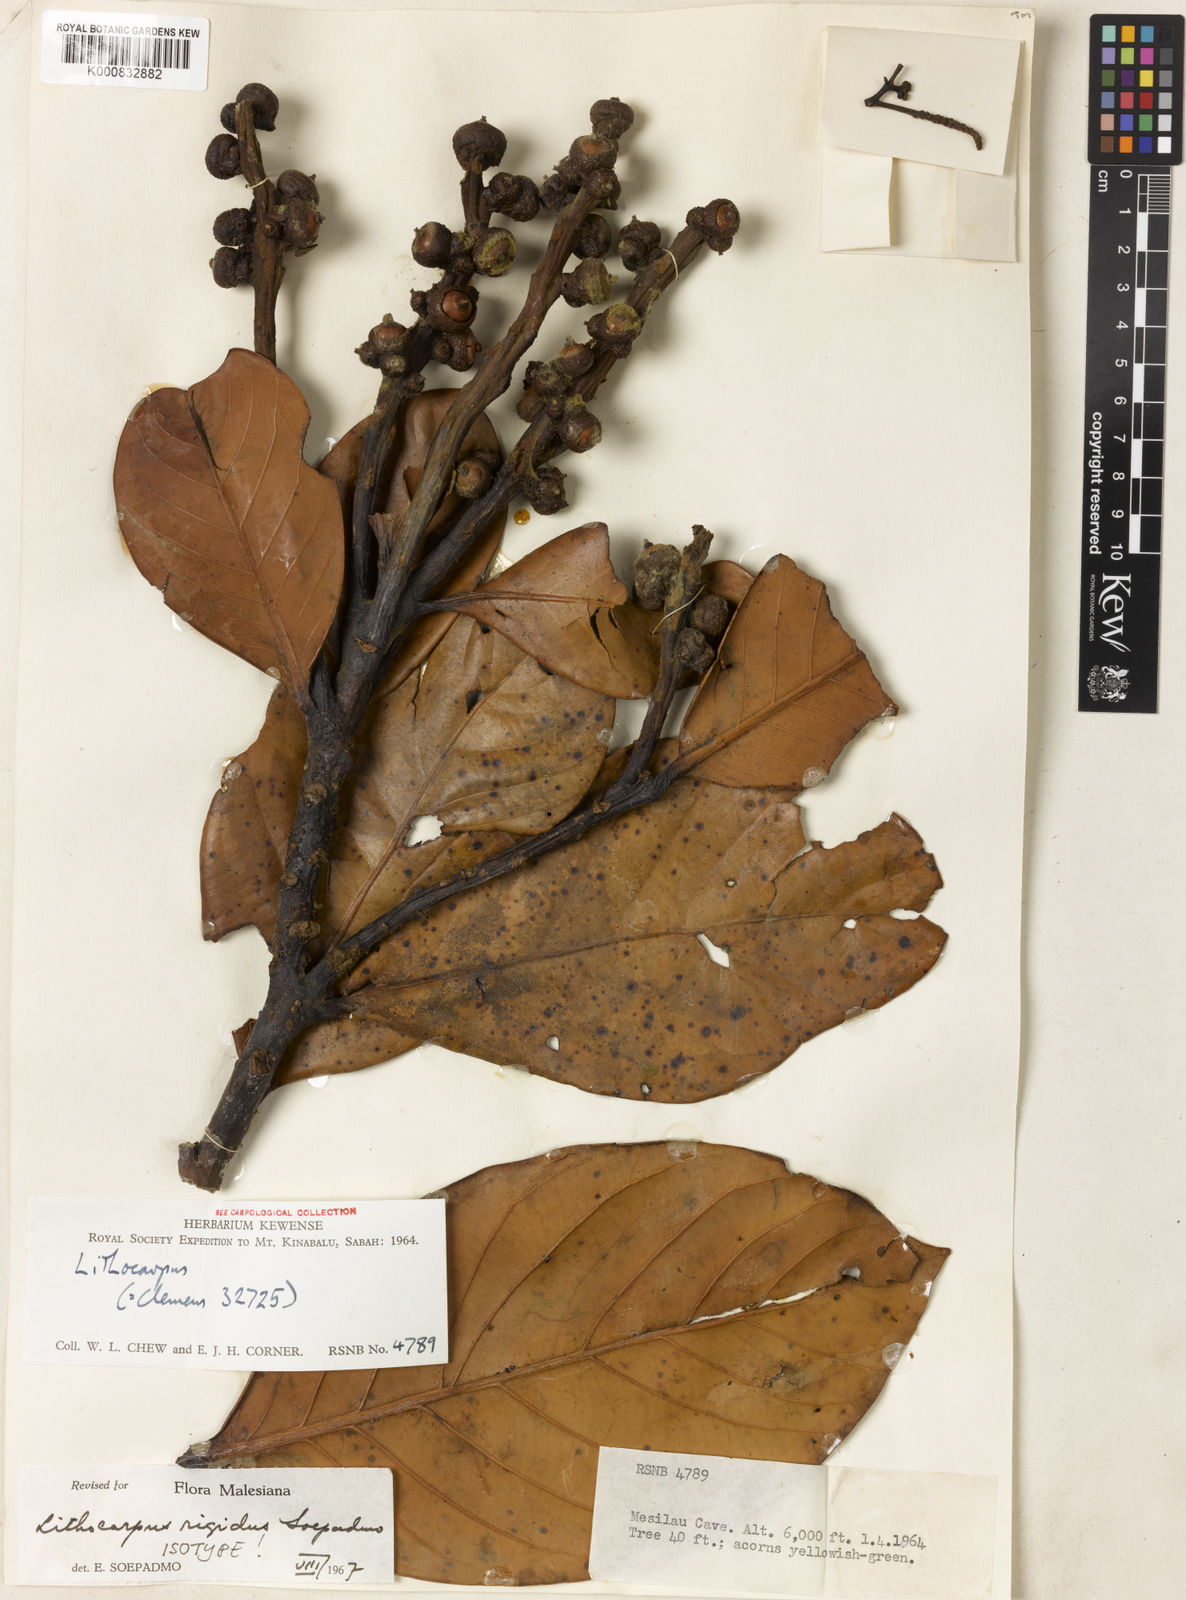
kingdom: Plantae
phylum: Tracheophyta
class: Magnoliopsida
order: Fagales
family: Fagaceae
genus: Lithocarpus
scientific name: Lithocarpus rigidus
